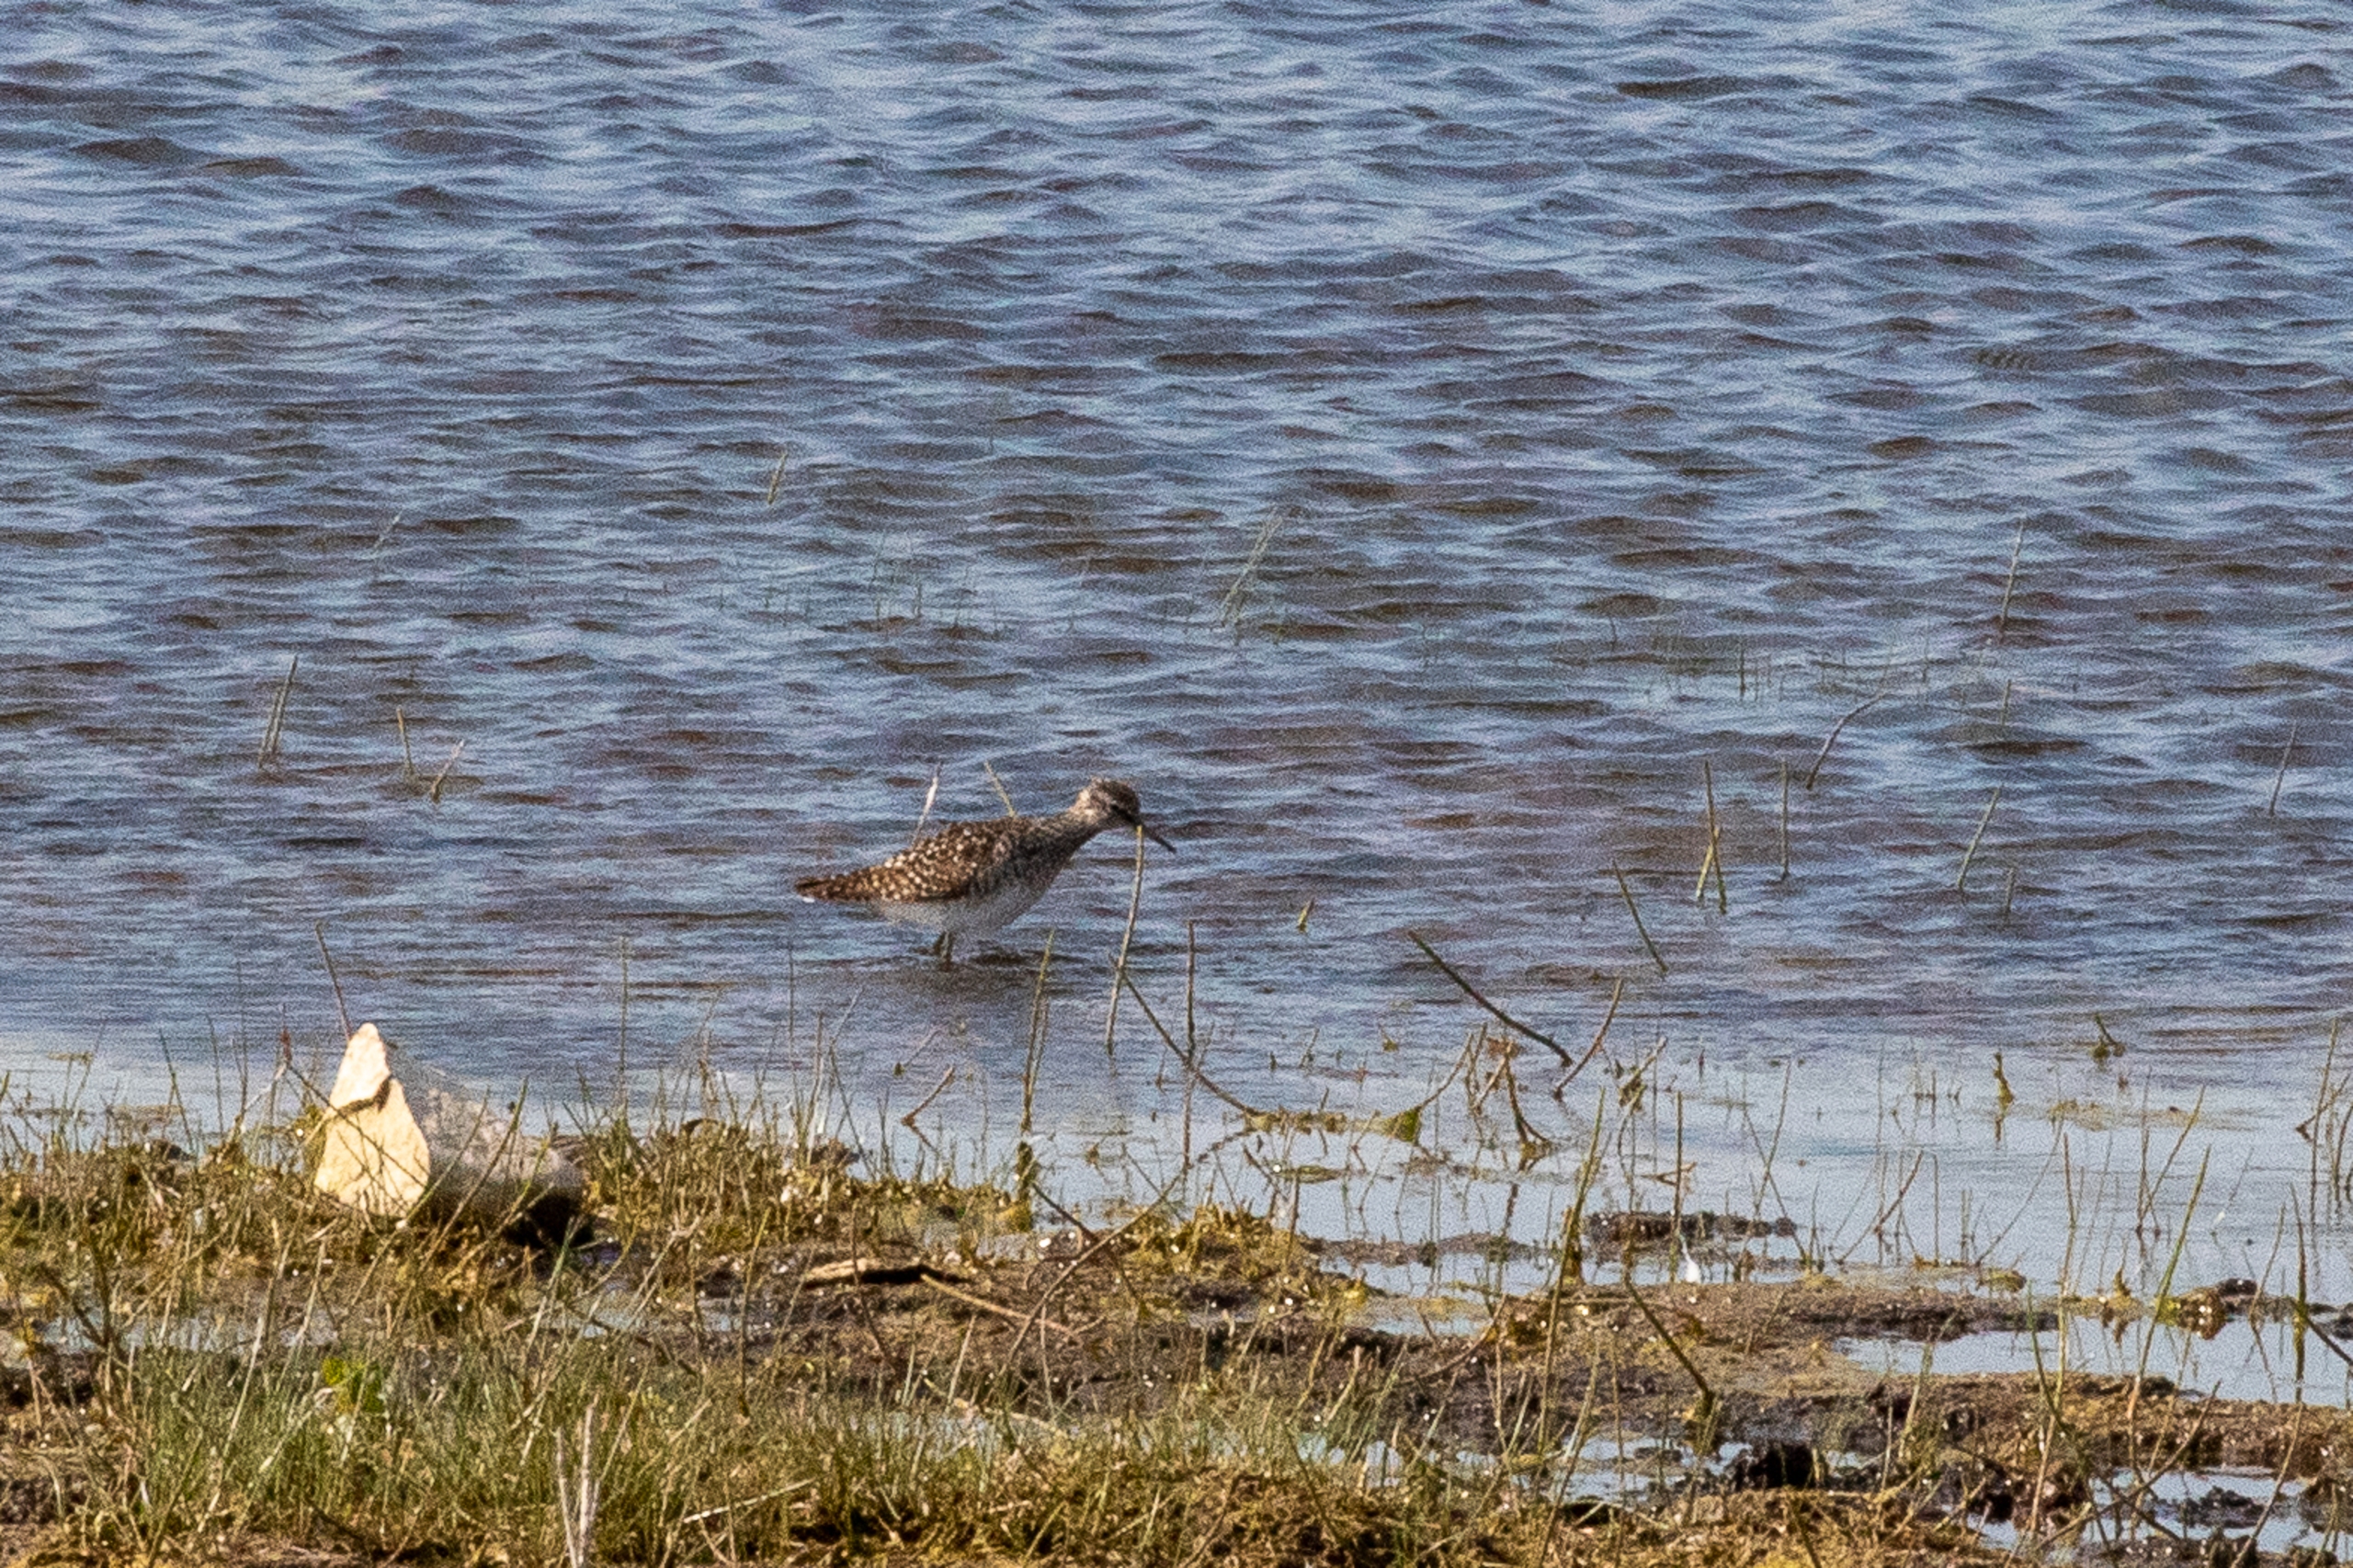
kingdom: Animalia
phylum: Chordata
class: Aves
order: Charadriiformes
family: Scolopacidae
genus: Tringa
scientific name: Tringa glareola
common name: Tinksmed
